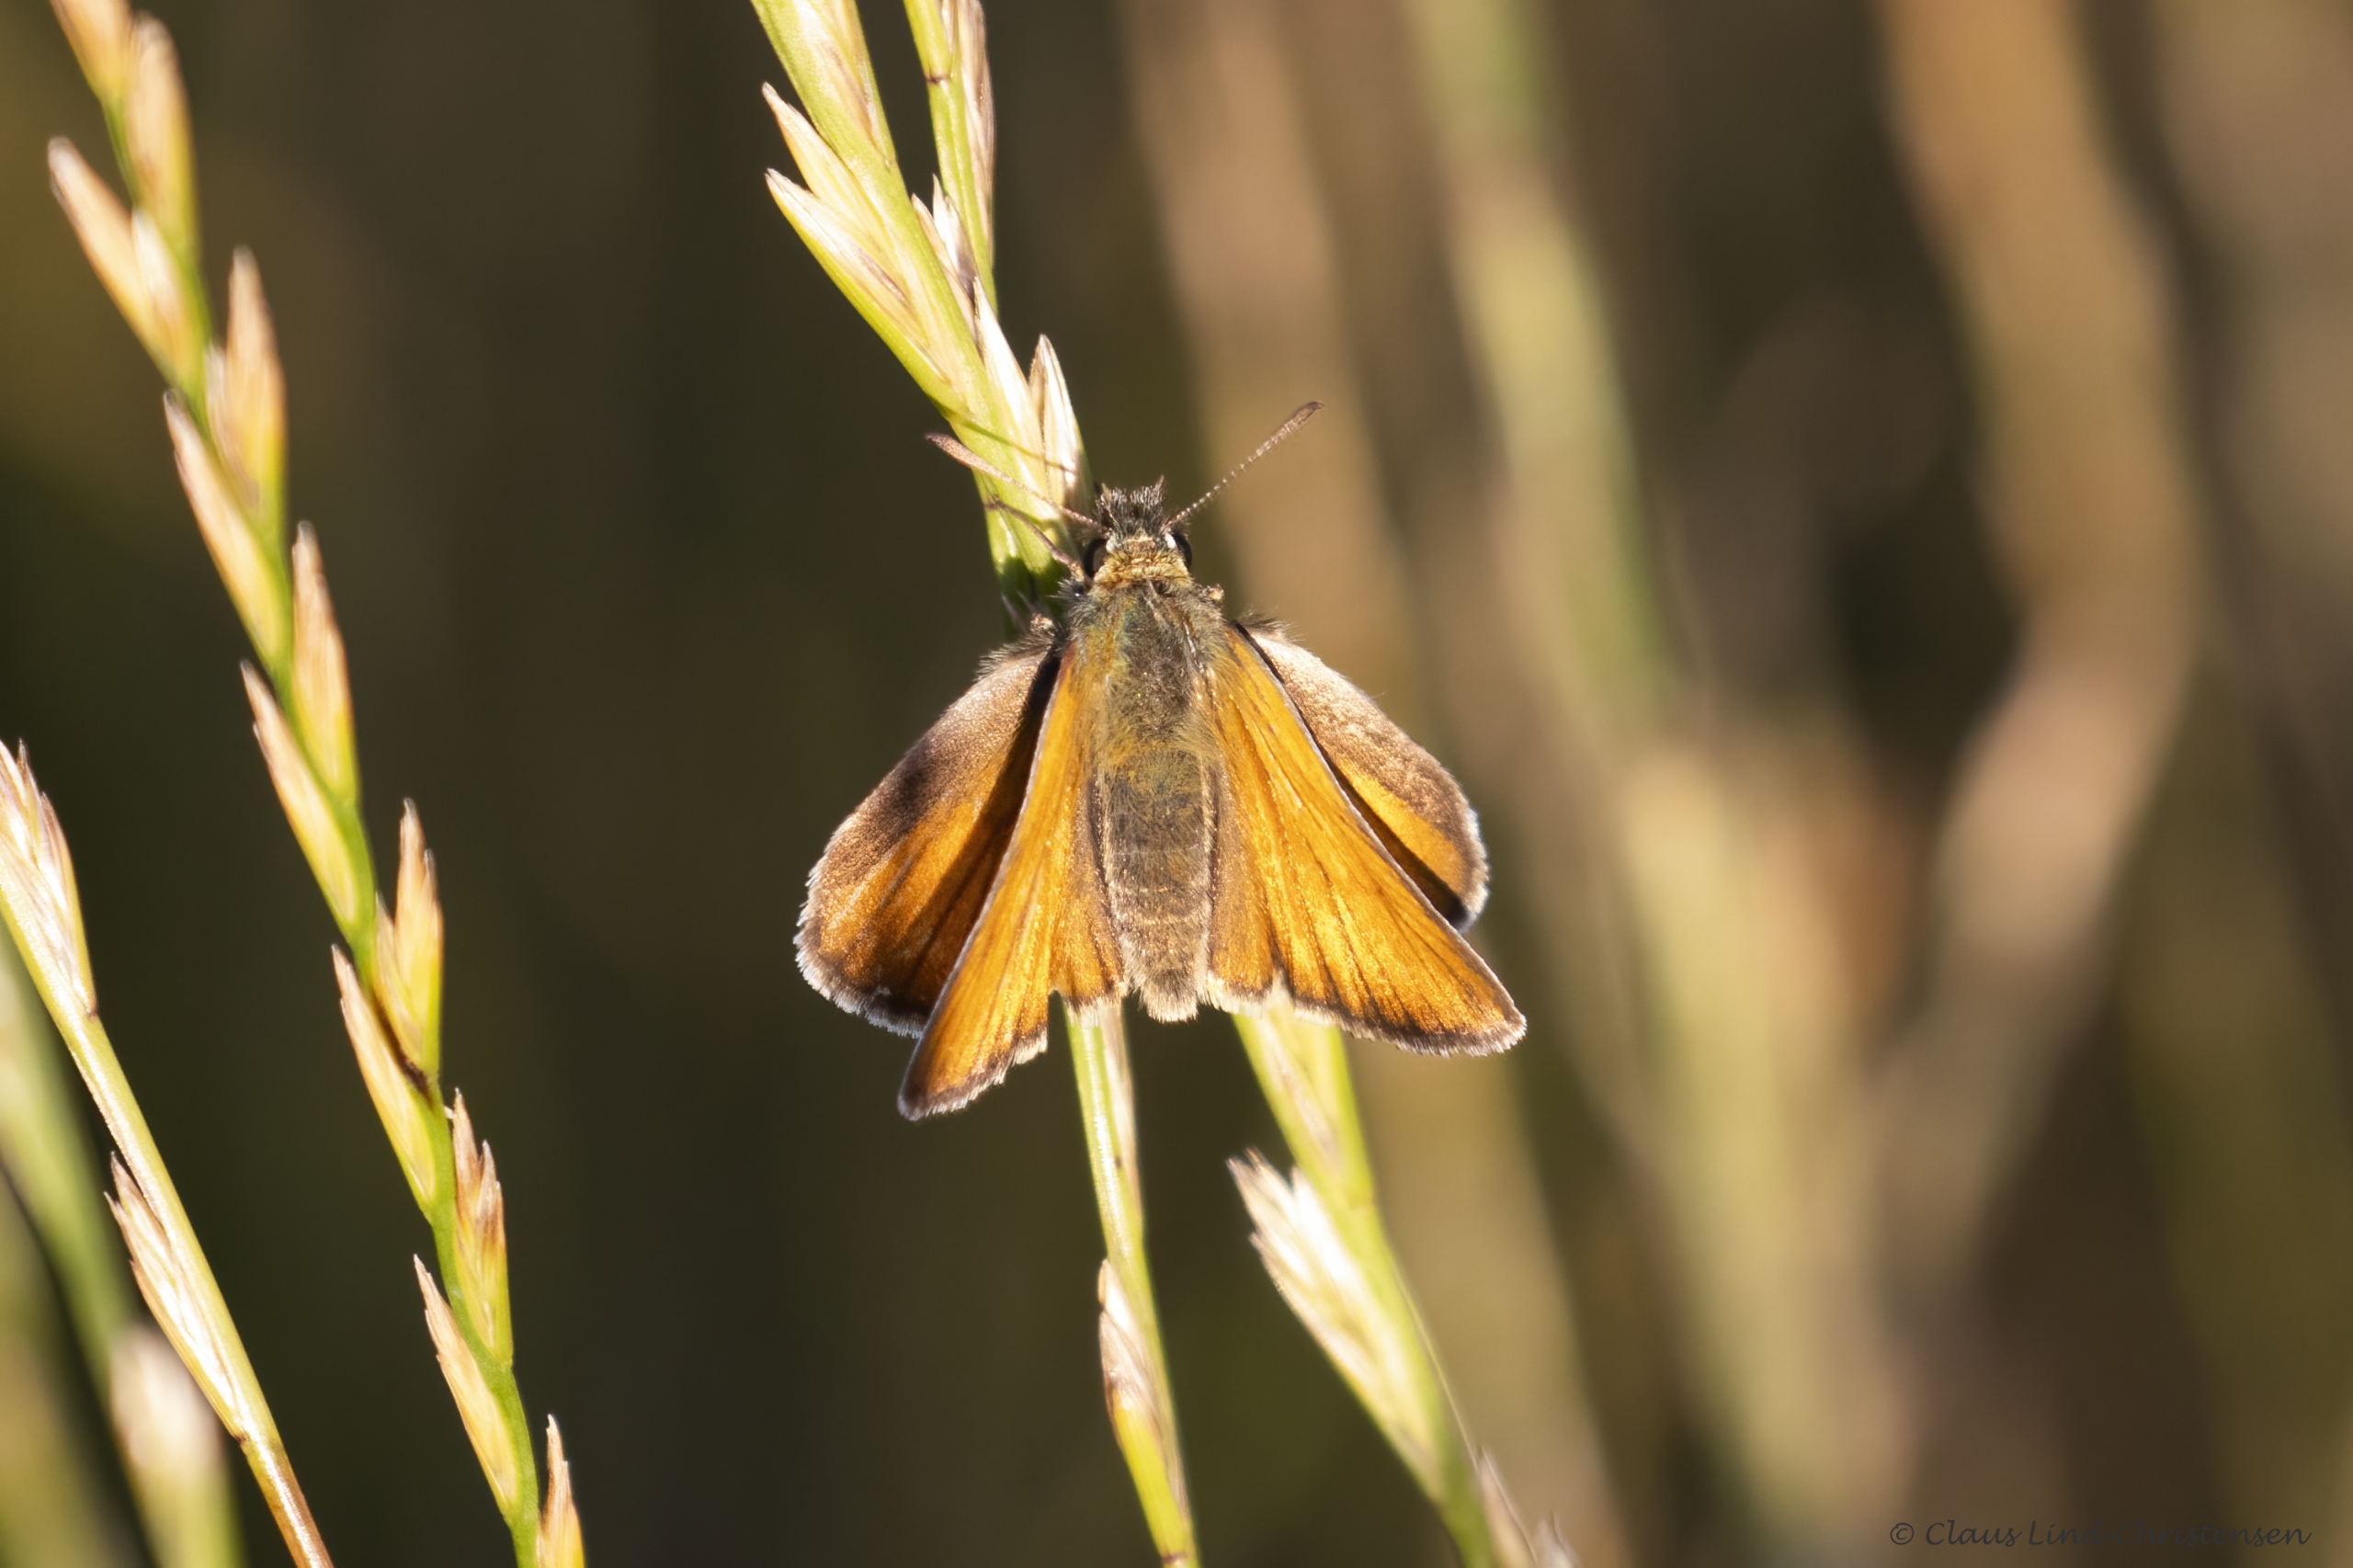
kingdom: Animalia
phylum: Arthropoda
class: Insecta
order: Lepidoptera
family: Hesperiidae
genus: Thymelicus
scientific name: Thymelicus lineola
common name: Stregbredpande
